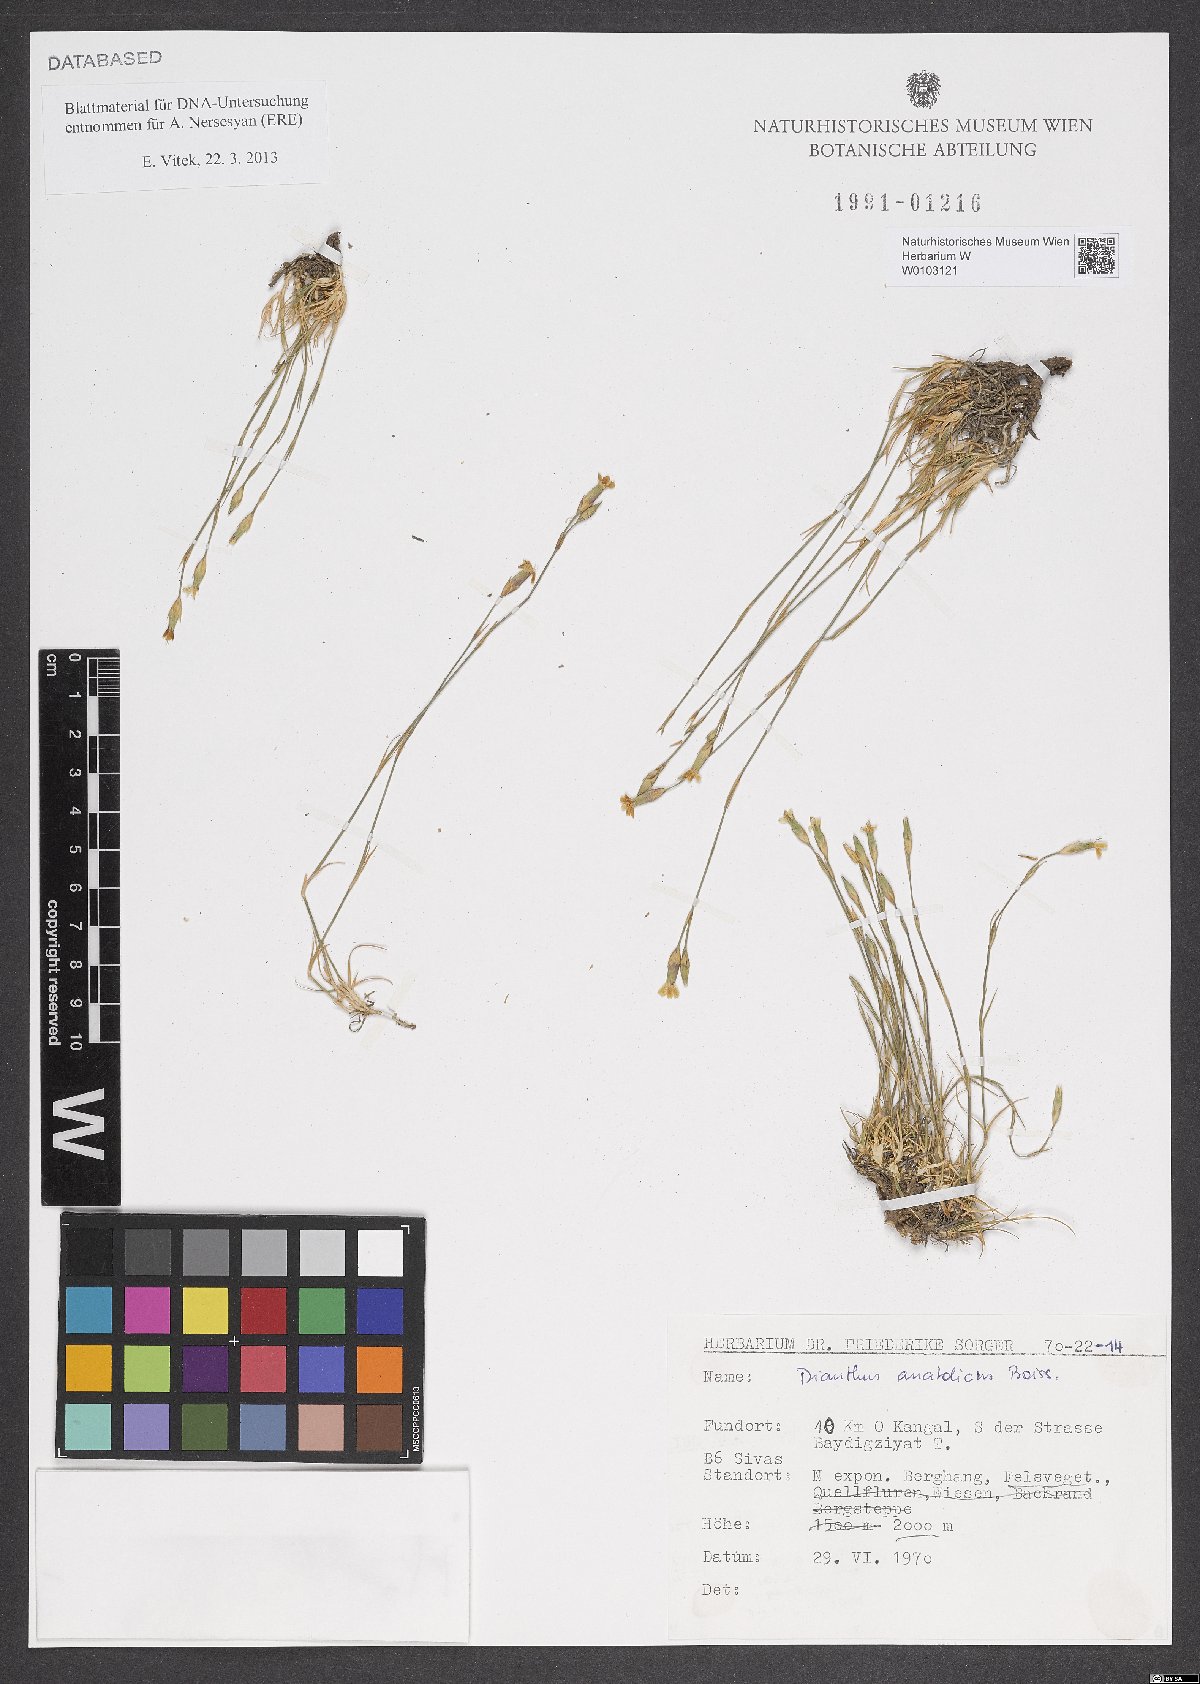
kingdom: Plantae
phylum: Tracheophyta
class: Magnoliopsida
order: Caryophyllales
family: Caryophyllaceae
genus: Dianthus
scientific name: Dianthus anatolicus
